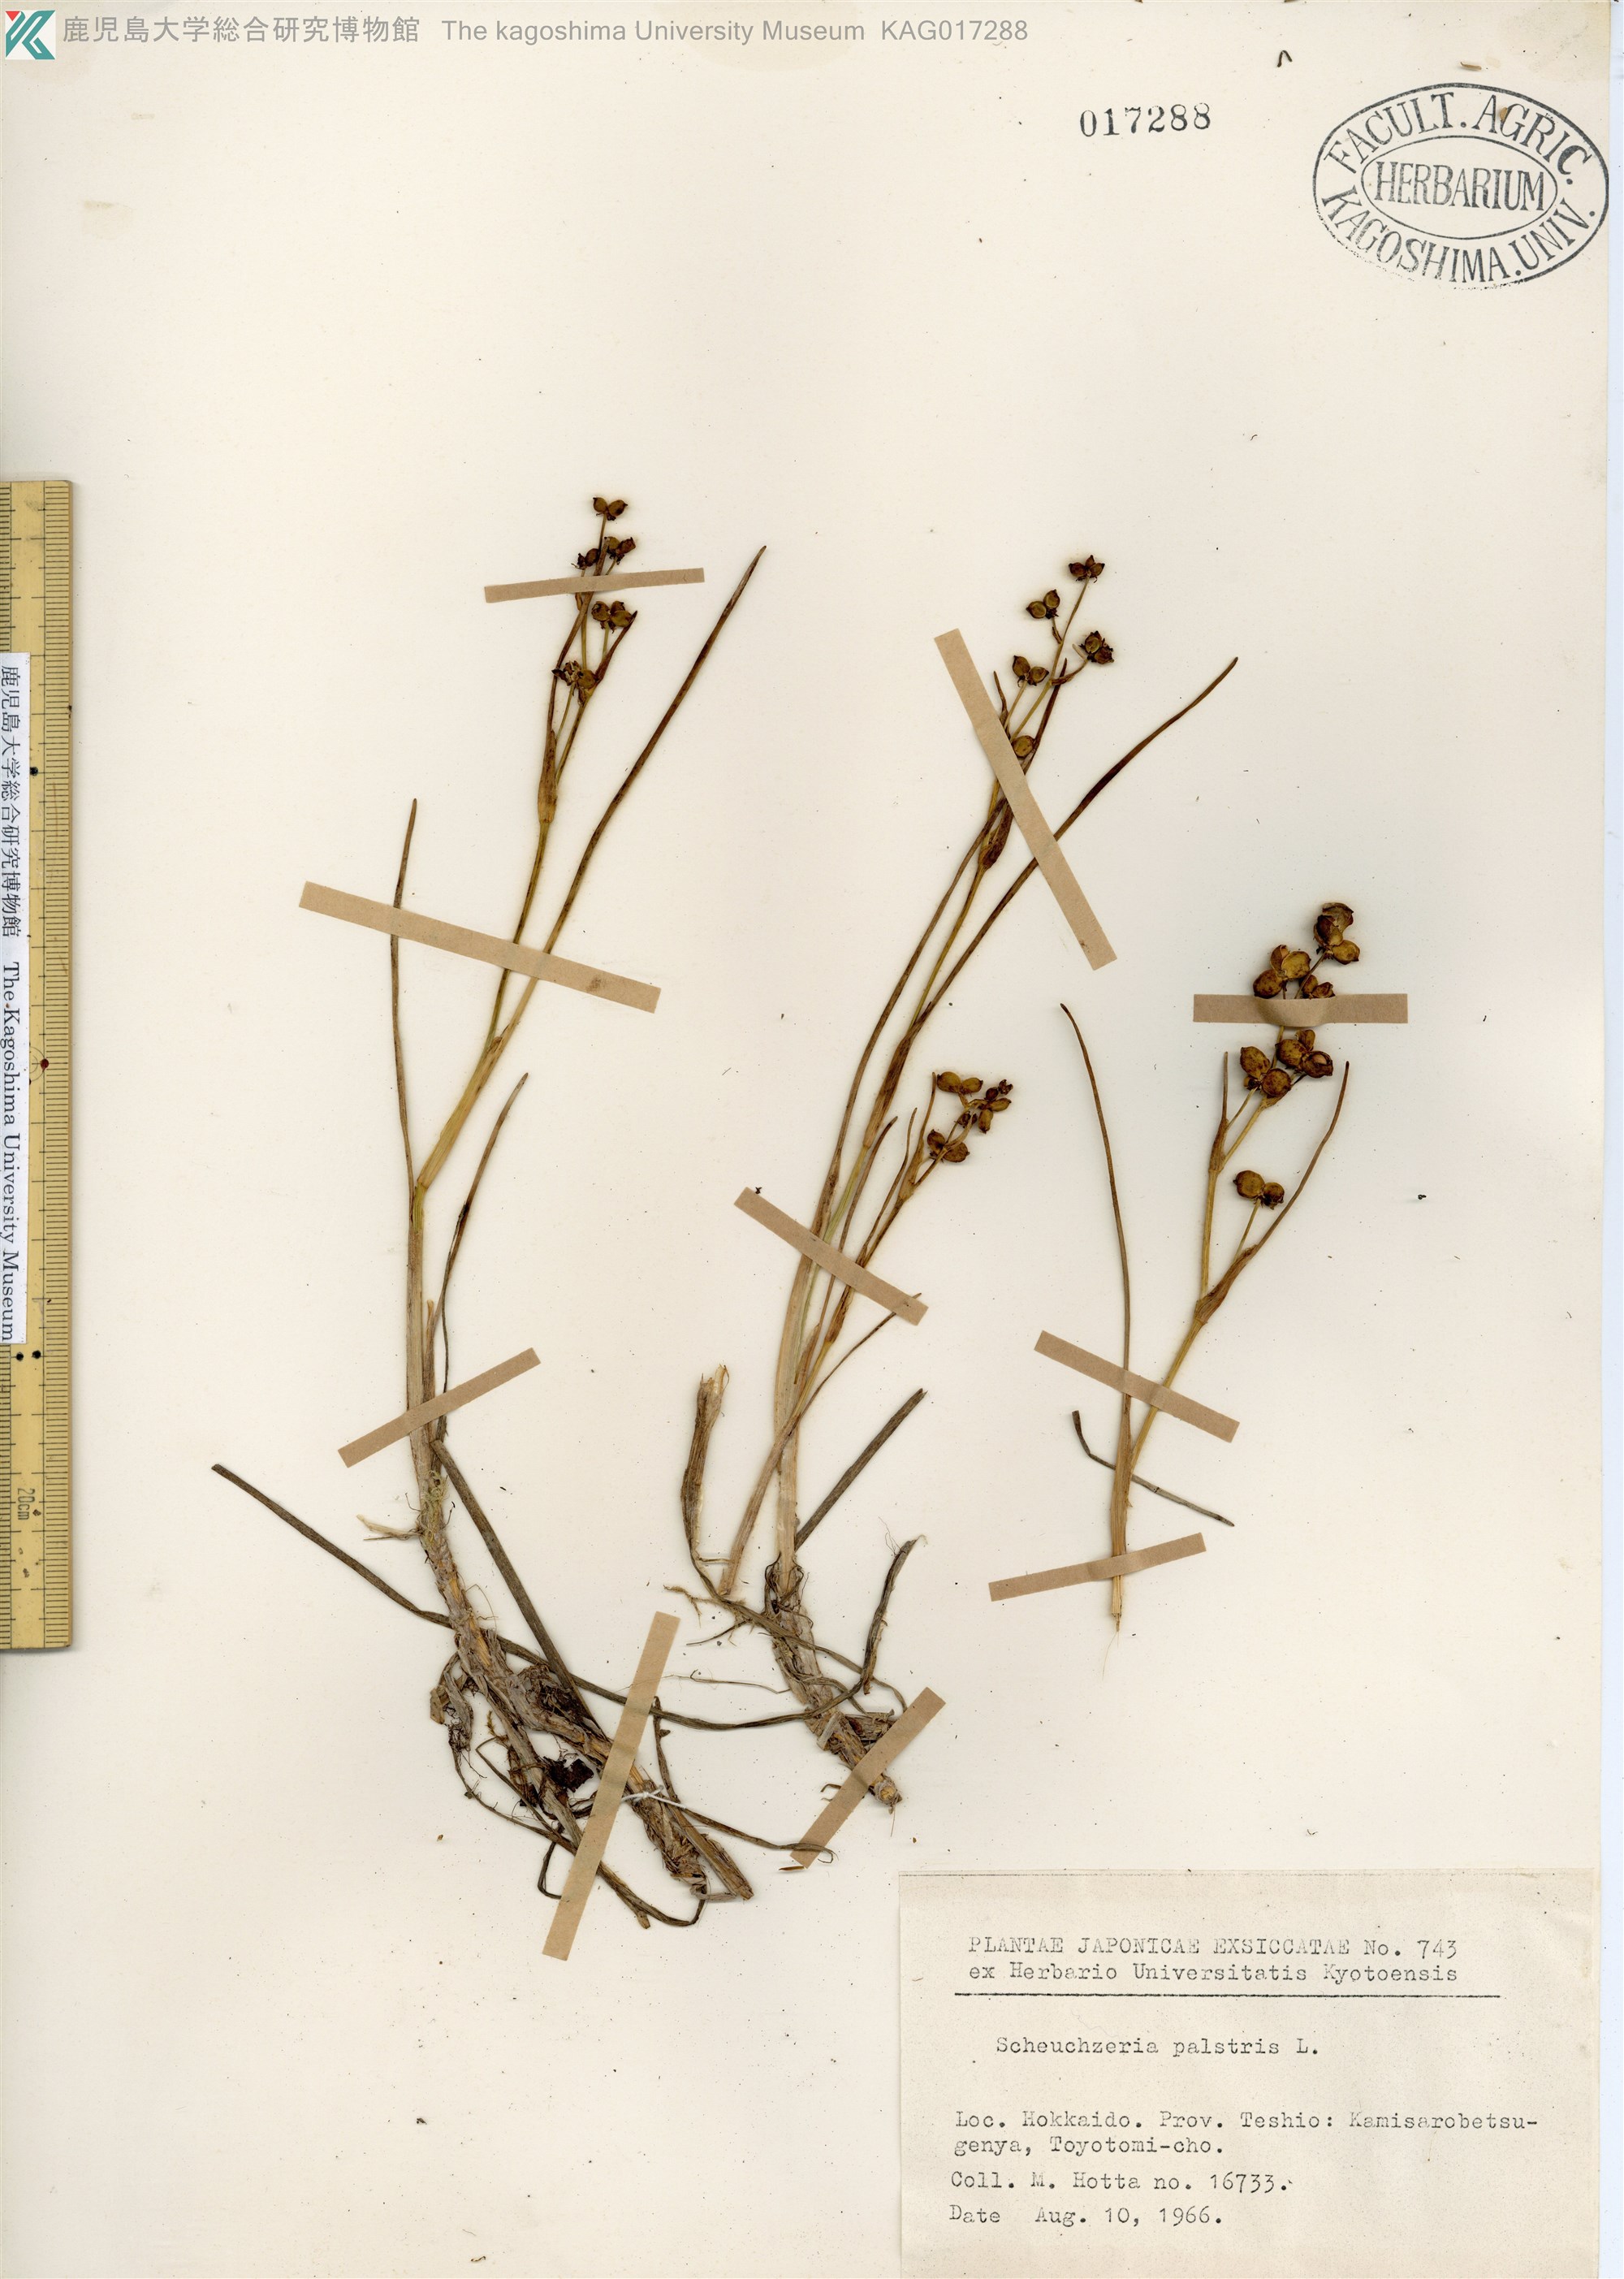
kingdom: Plantae
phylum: Tracheophyta
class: Liliopsida
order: Alismatales
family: Juncaginaceae
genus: Triglochin
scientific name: Triglochin palustris
